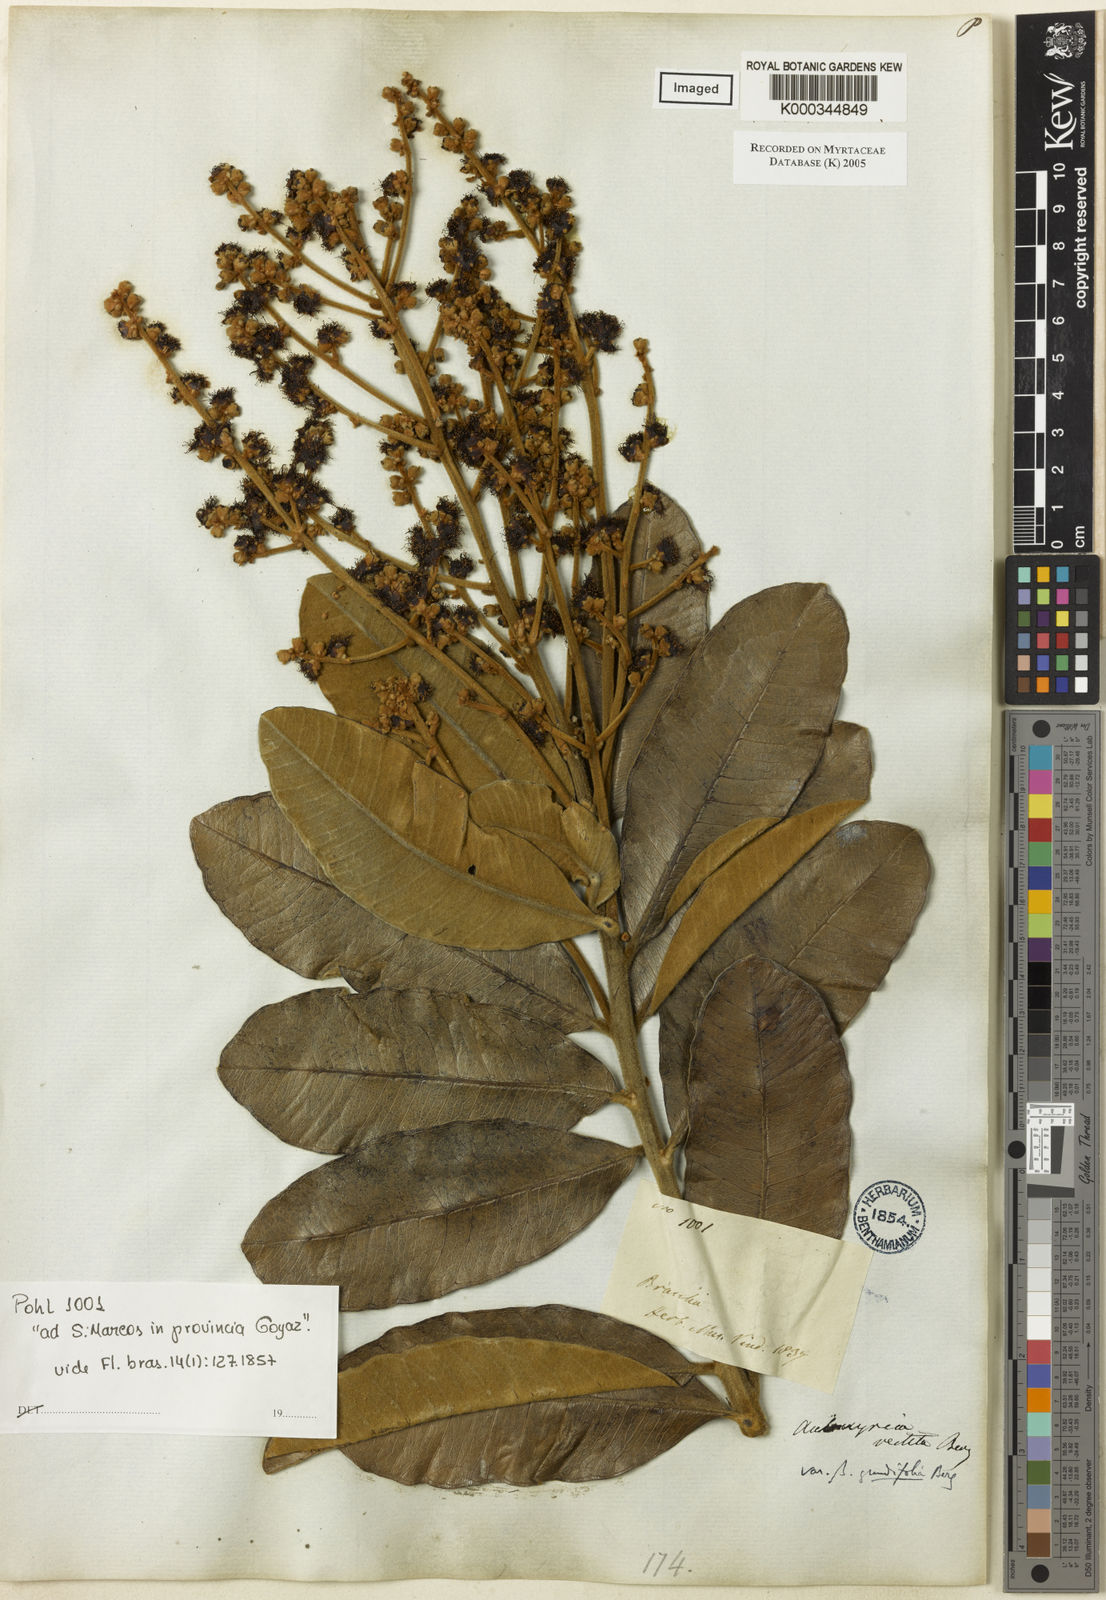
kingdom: Plantae
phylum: Tracheophyta
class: Magnoliopsida
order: Myrtales
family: Myrtaceae
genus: Myrcia
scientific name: Myrcia vestita
